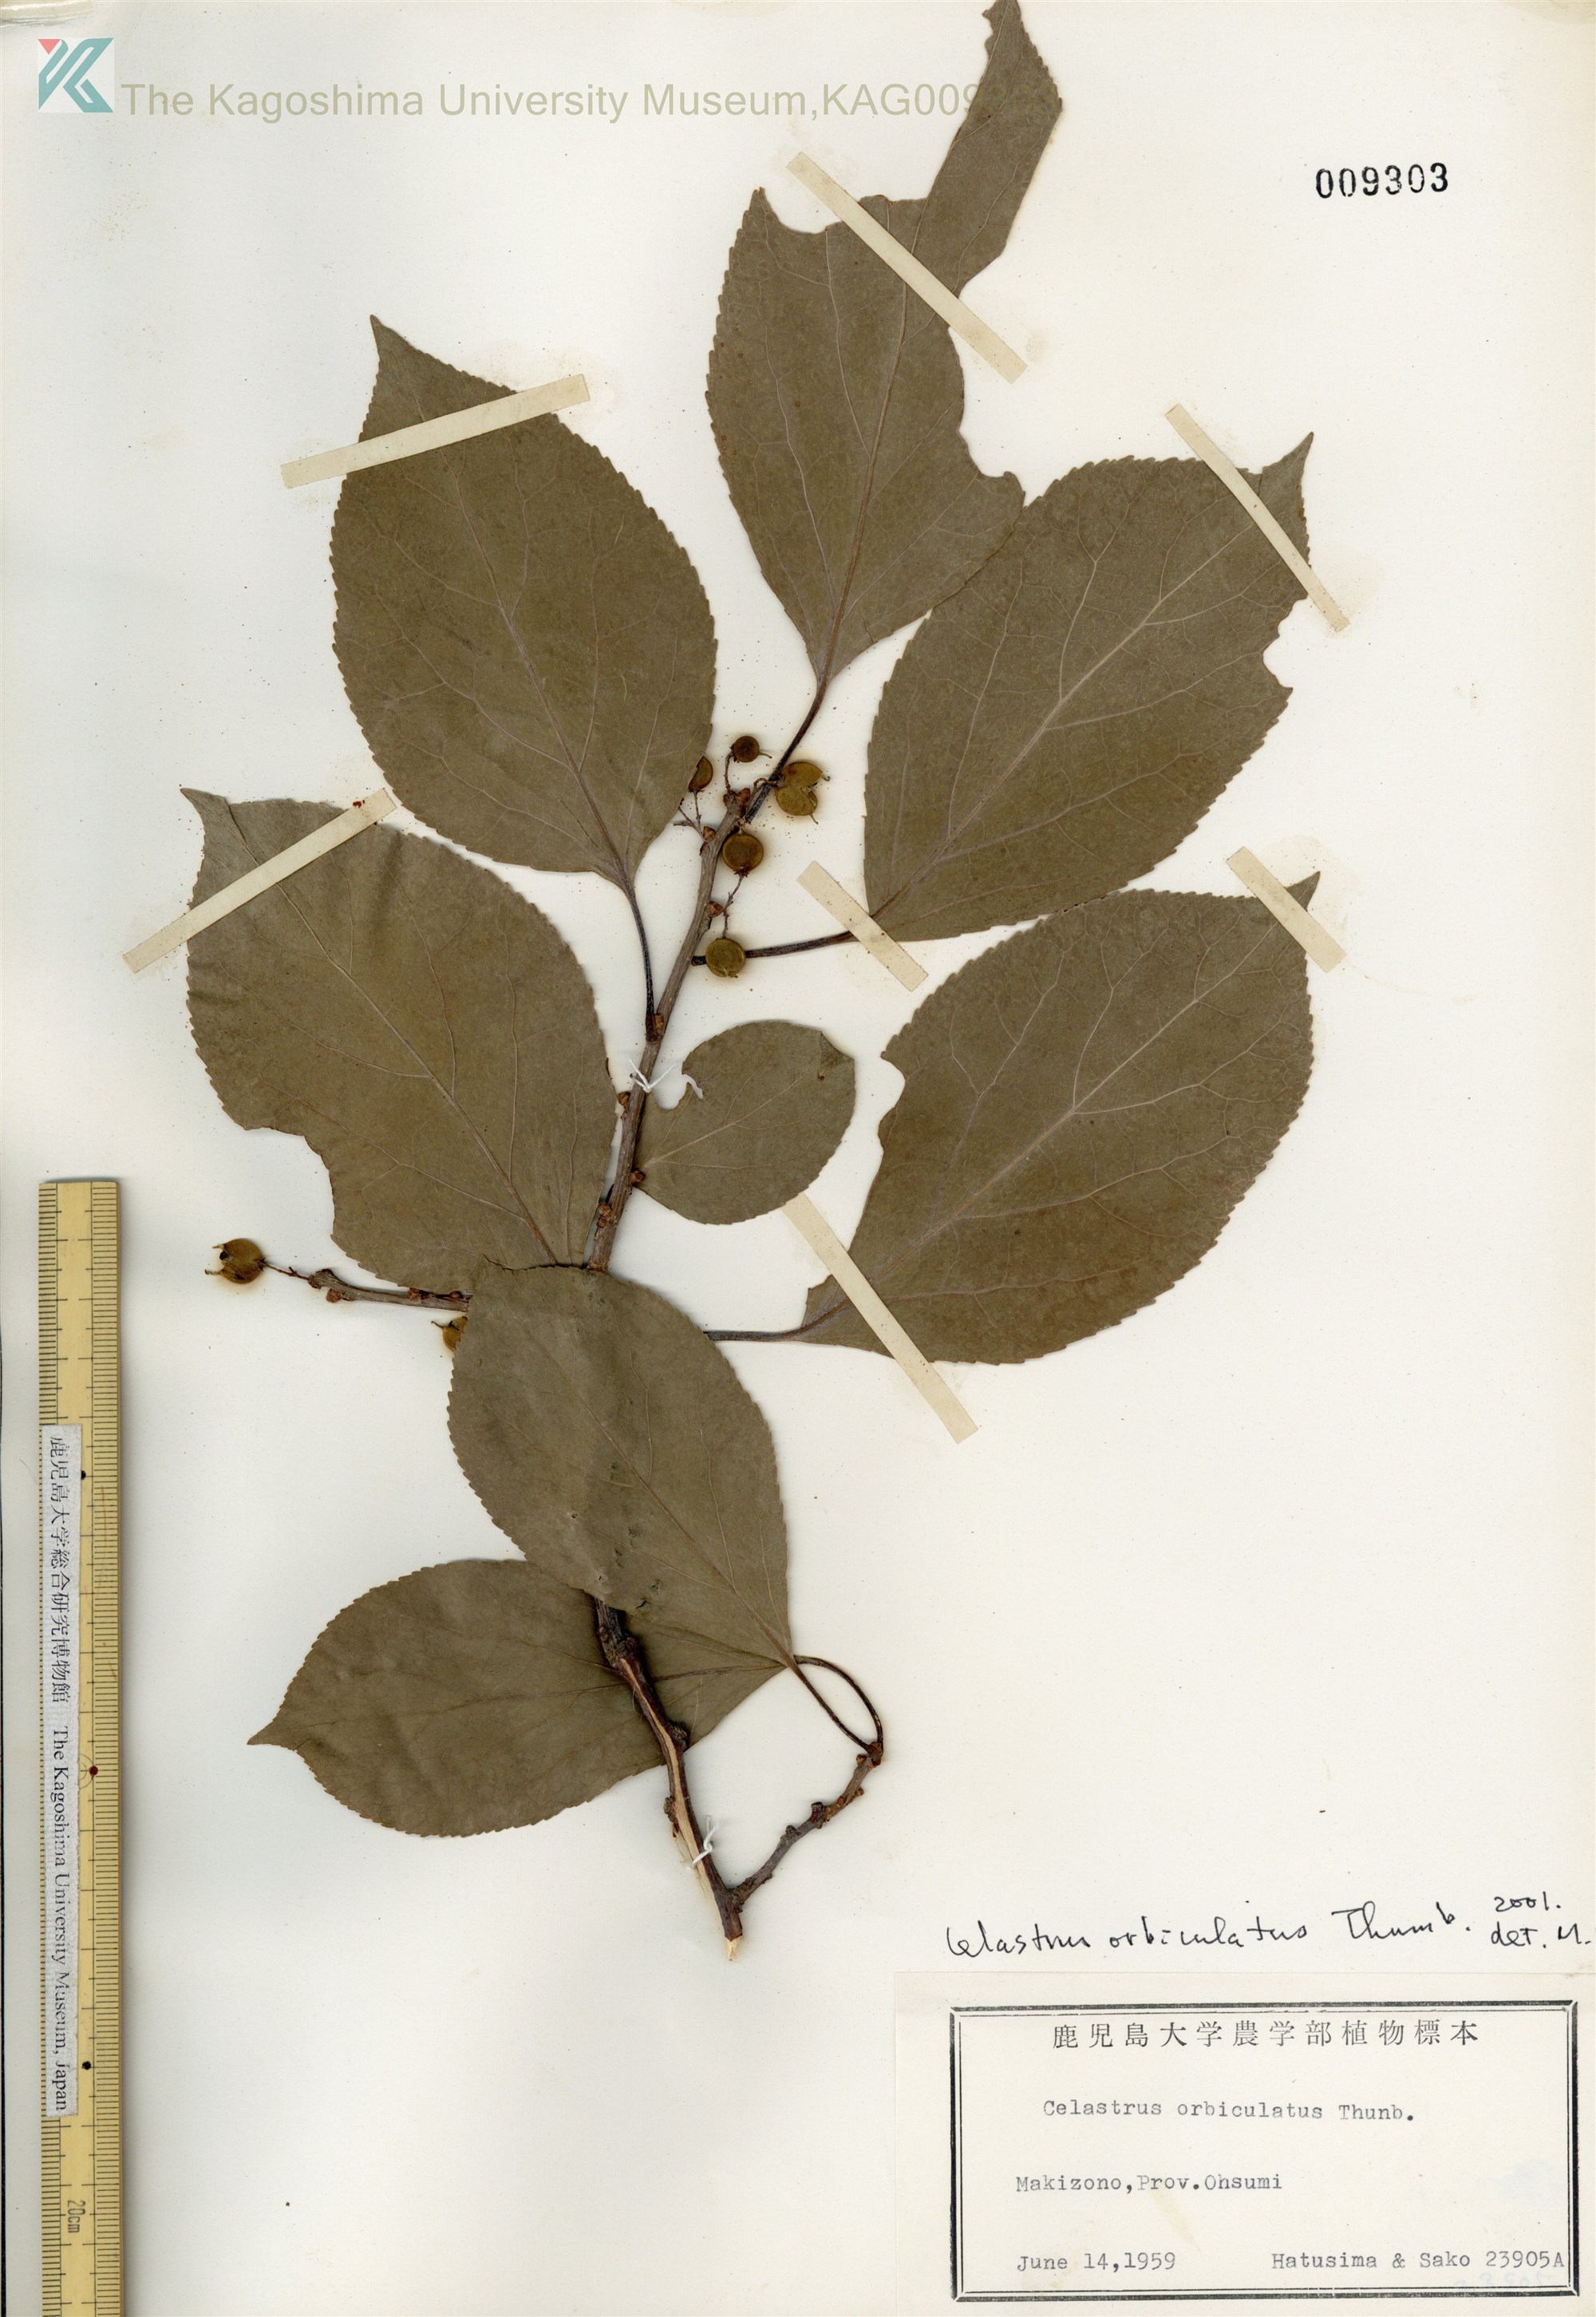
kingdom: Plantae
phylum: Tracheophyta
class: Magnoliopsida
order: Celastrales
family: Celastraceae
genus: Celastrus
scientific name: Celastrus punctatus
